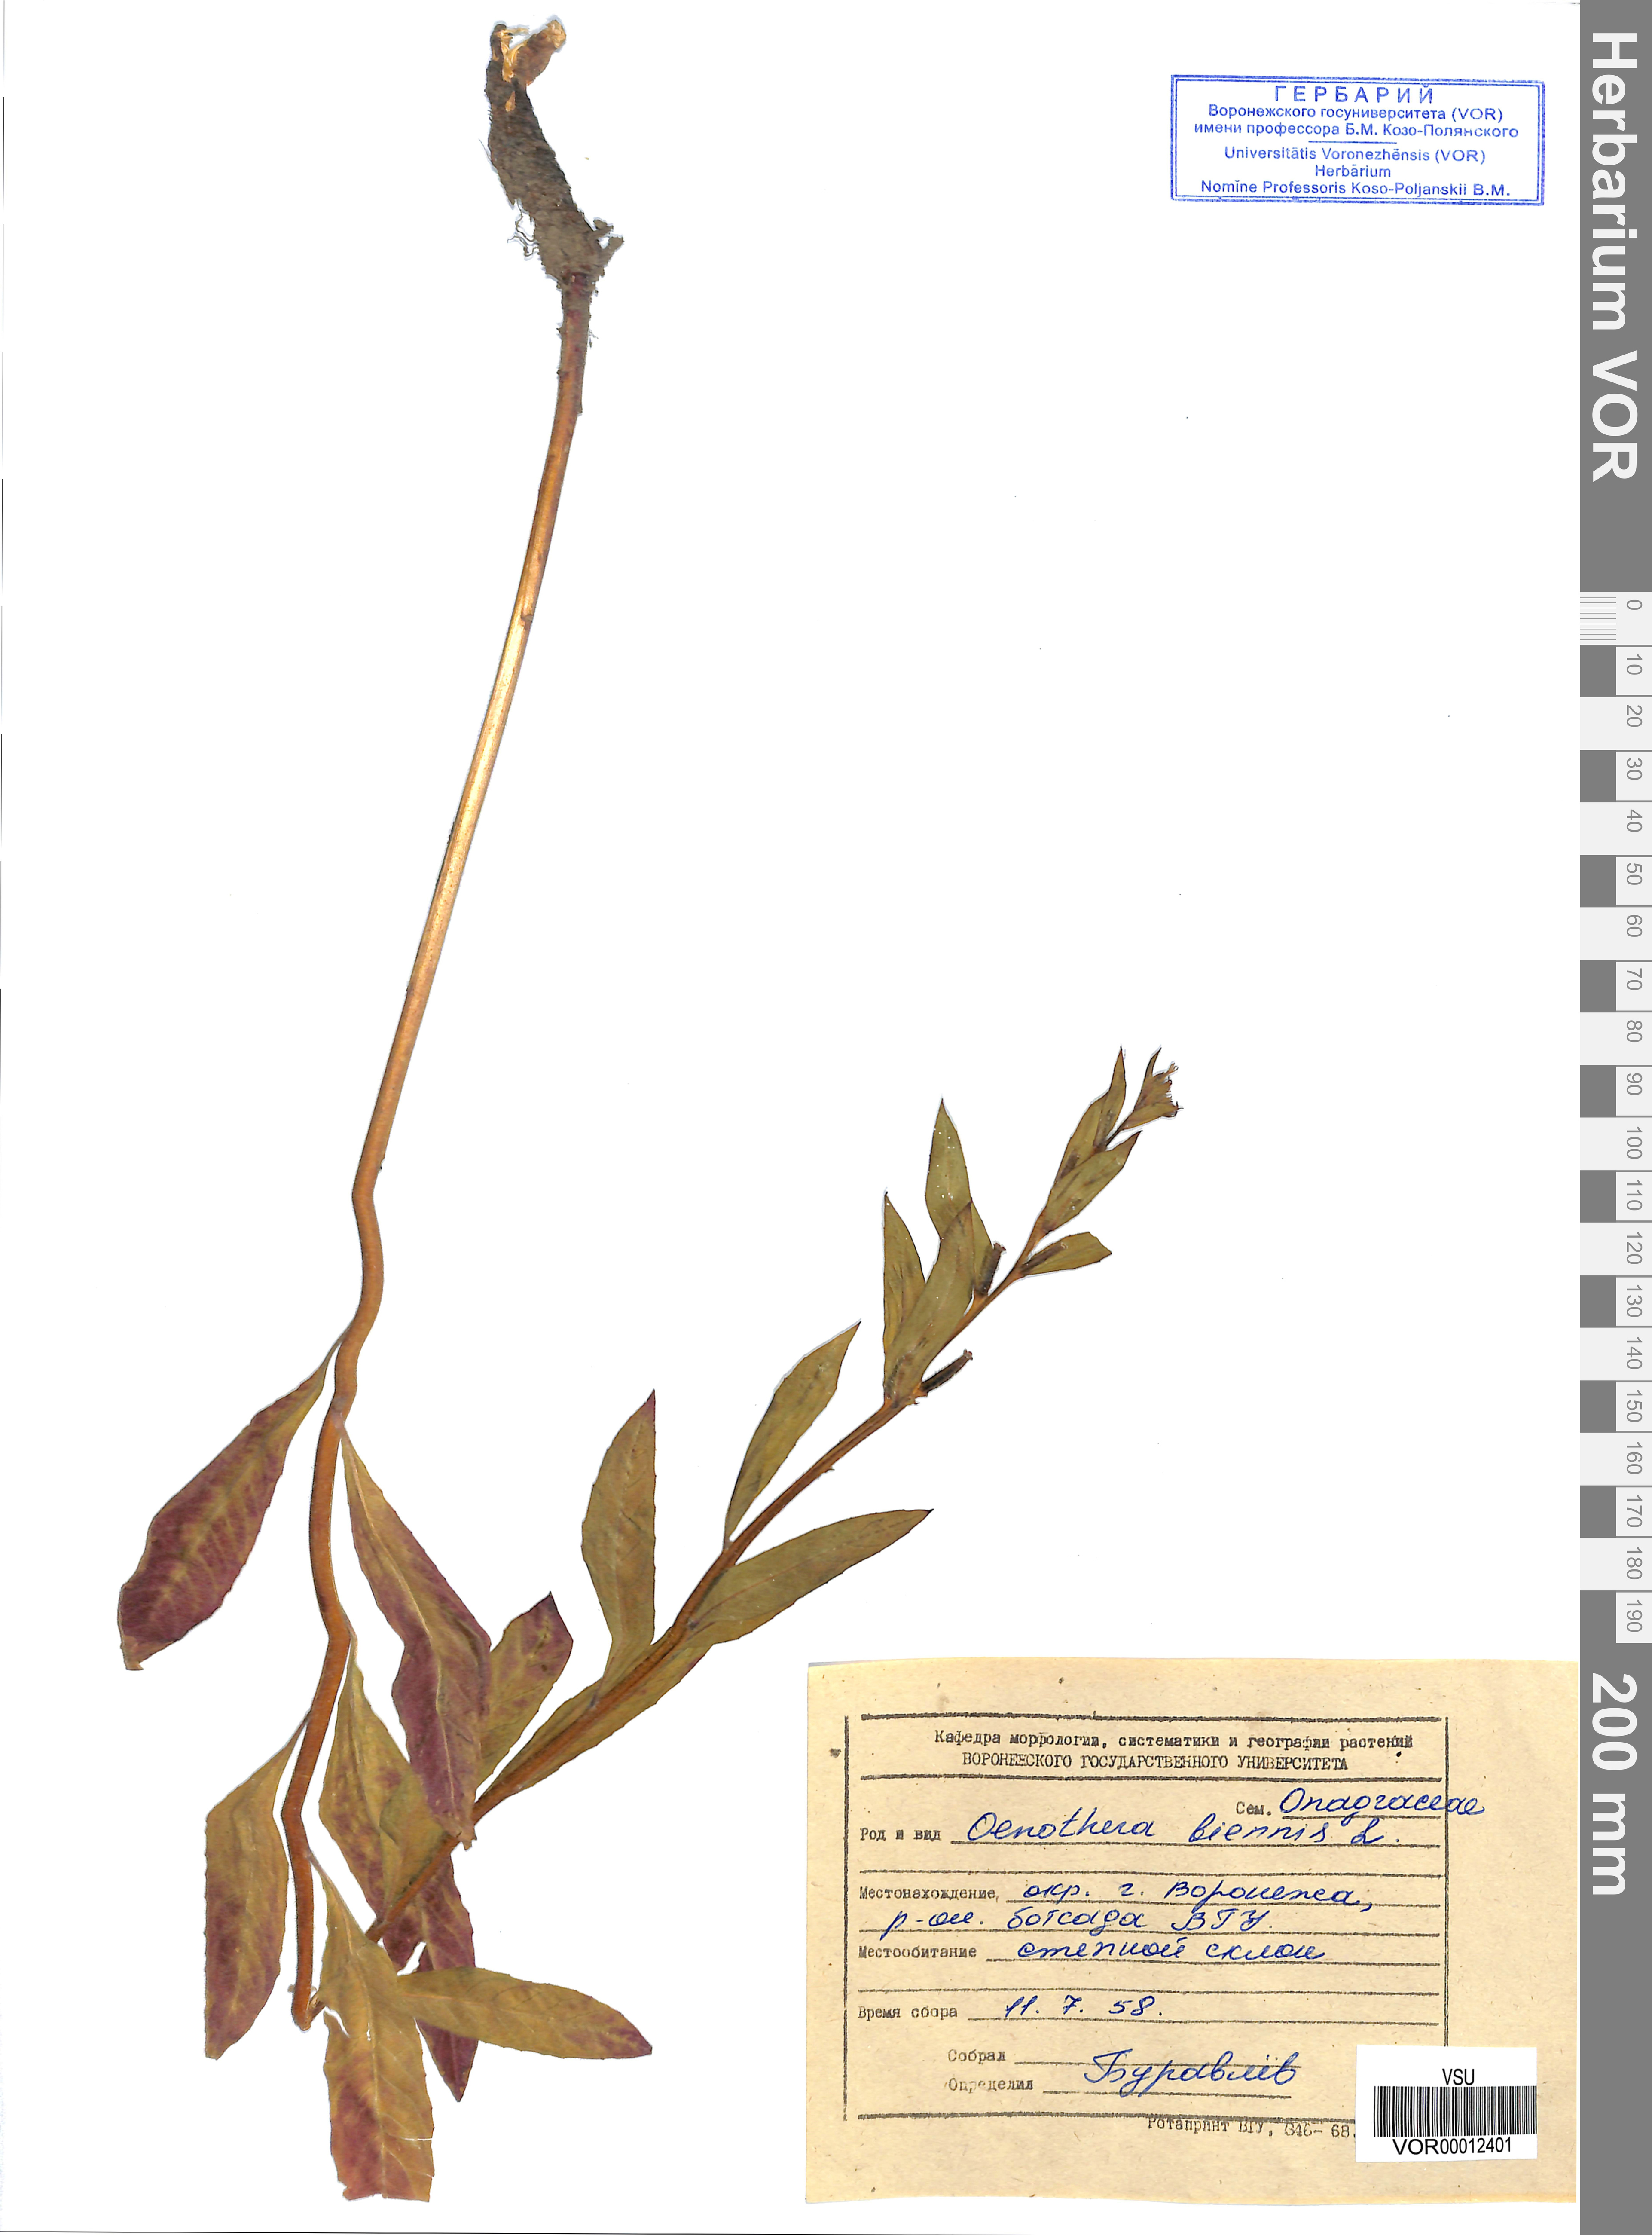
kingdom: Plantae
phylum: Tracheophyta
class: Magnoliopsida
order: Myrtales
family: Onagraceae
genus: Oenothera
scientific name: Oenothera biennis
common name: Common evening-primrose
